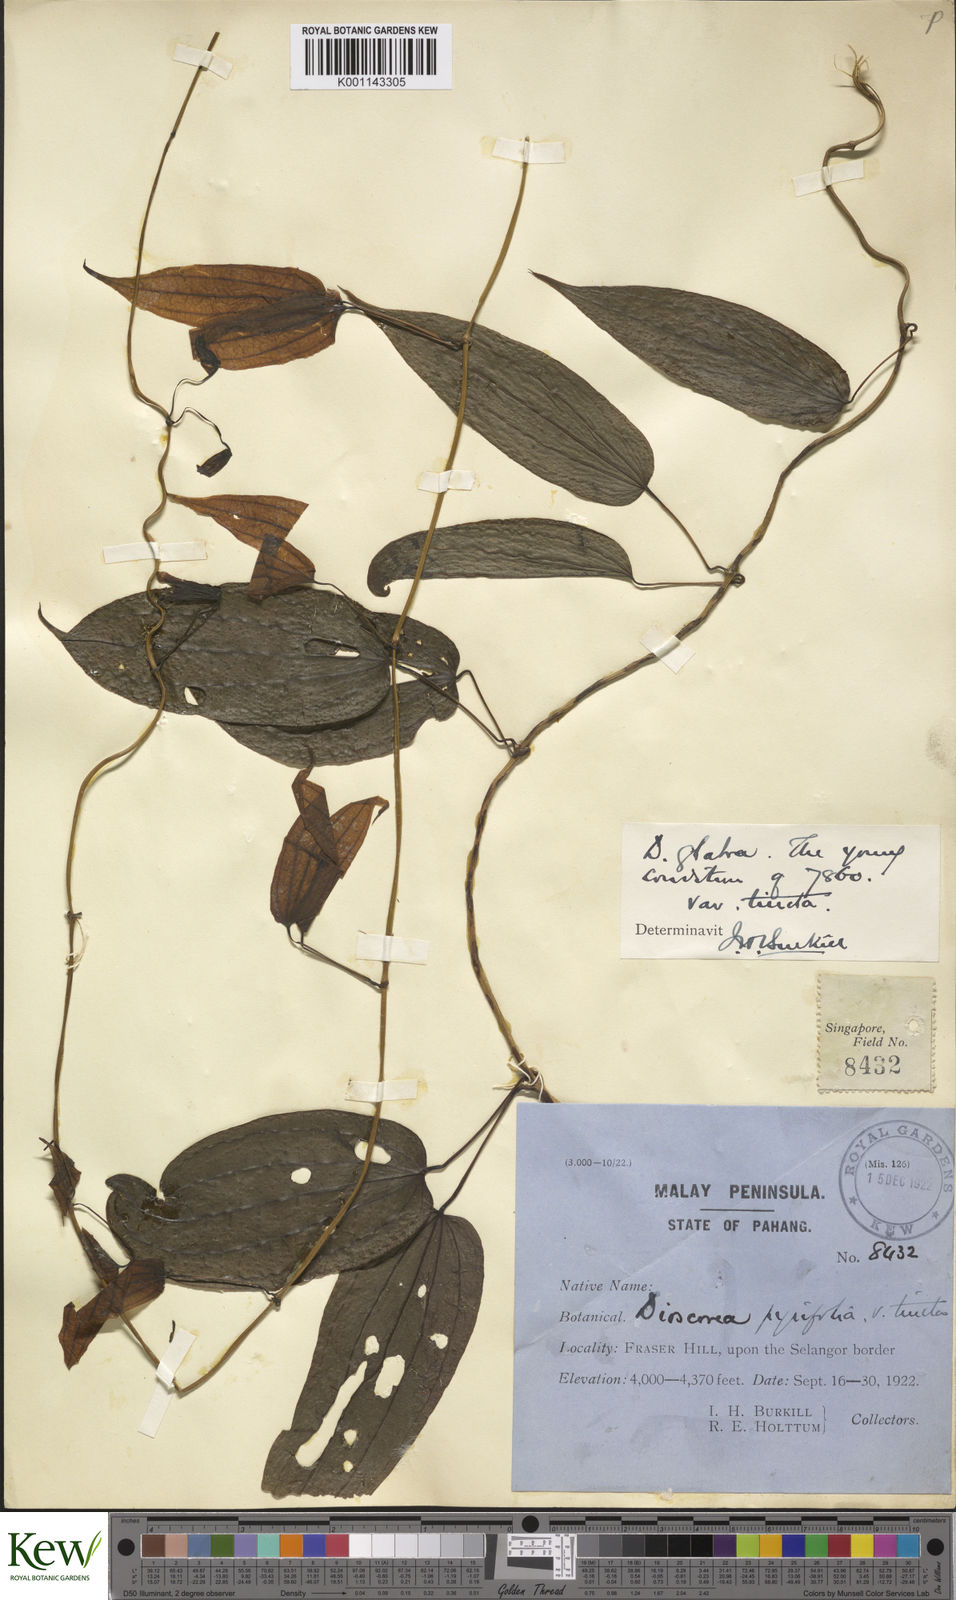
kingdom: Plantae
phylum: Tracheophyta
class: Liliopsida
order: Dioscoreales
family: Dioscoreaceae
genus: Dioscorea
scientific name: Dioscorea glabra
